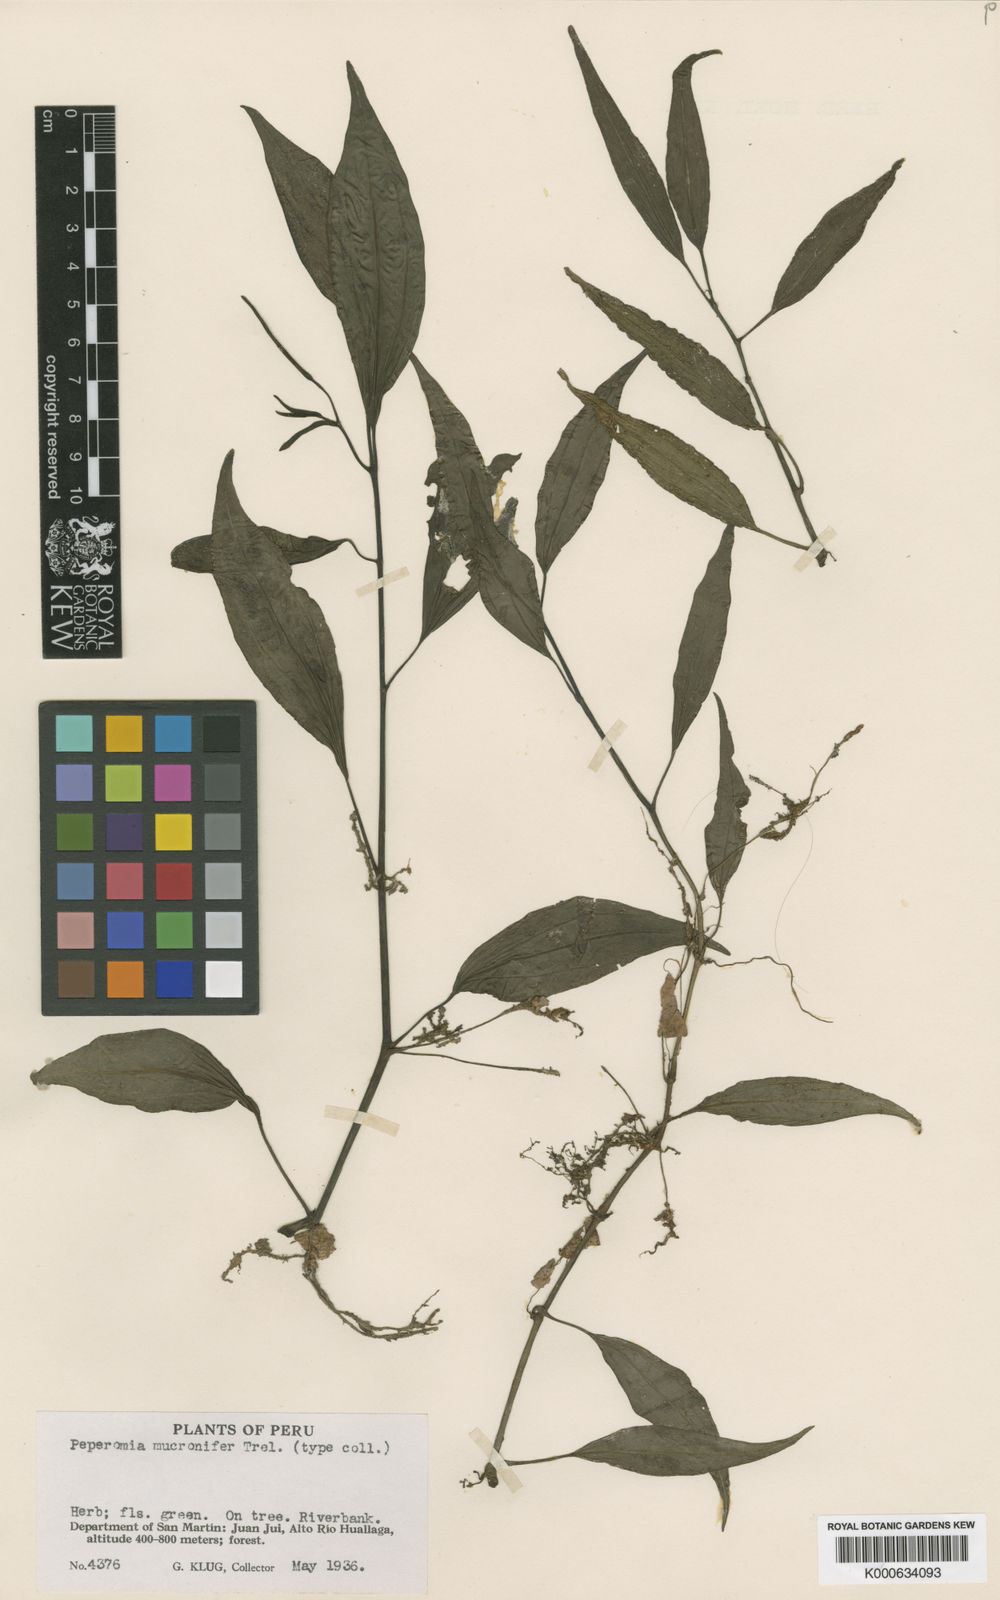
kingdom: Plantae
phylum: Tracheophyta
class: Magnoliopsida
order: Piperales
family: Piperaceae
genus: Peperomia
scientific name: Peperomia
